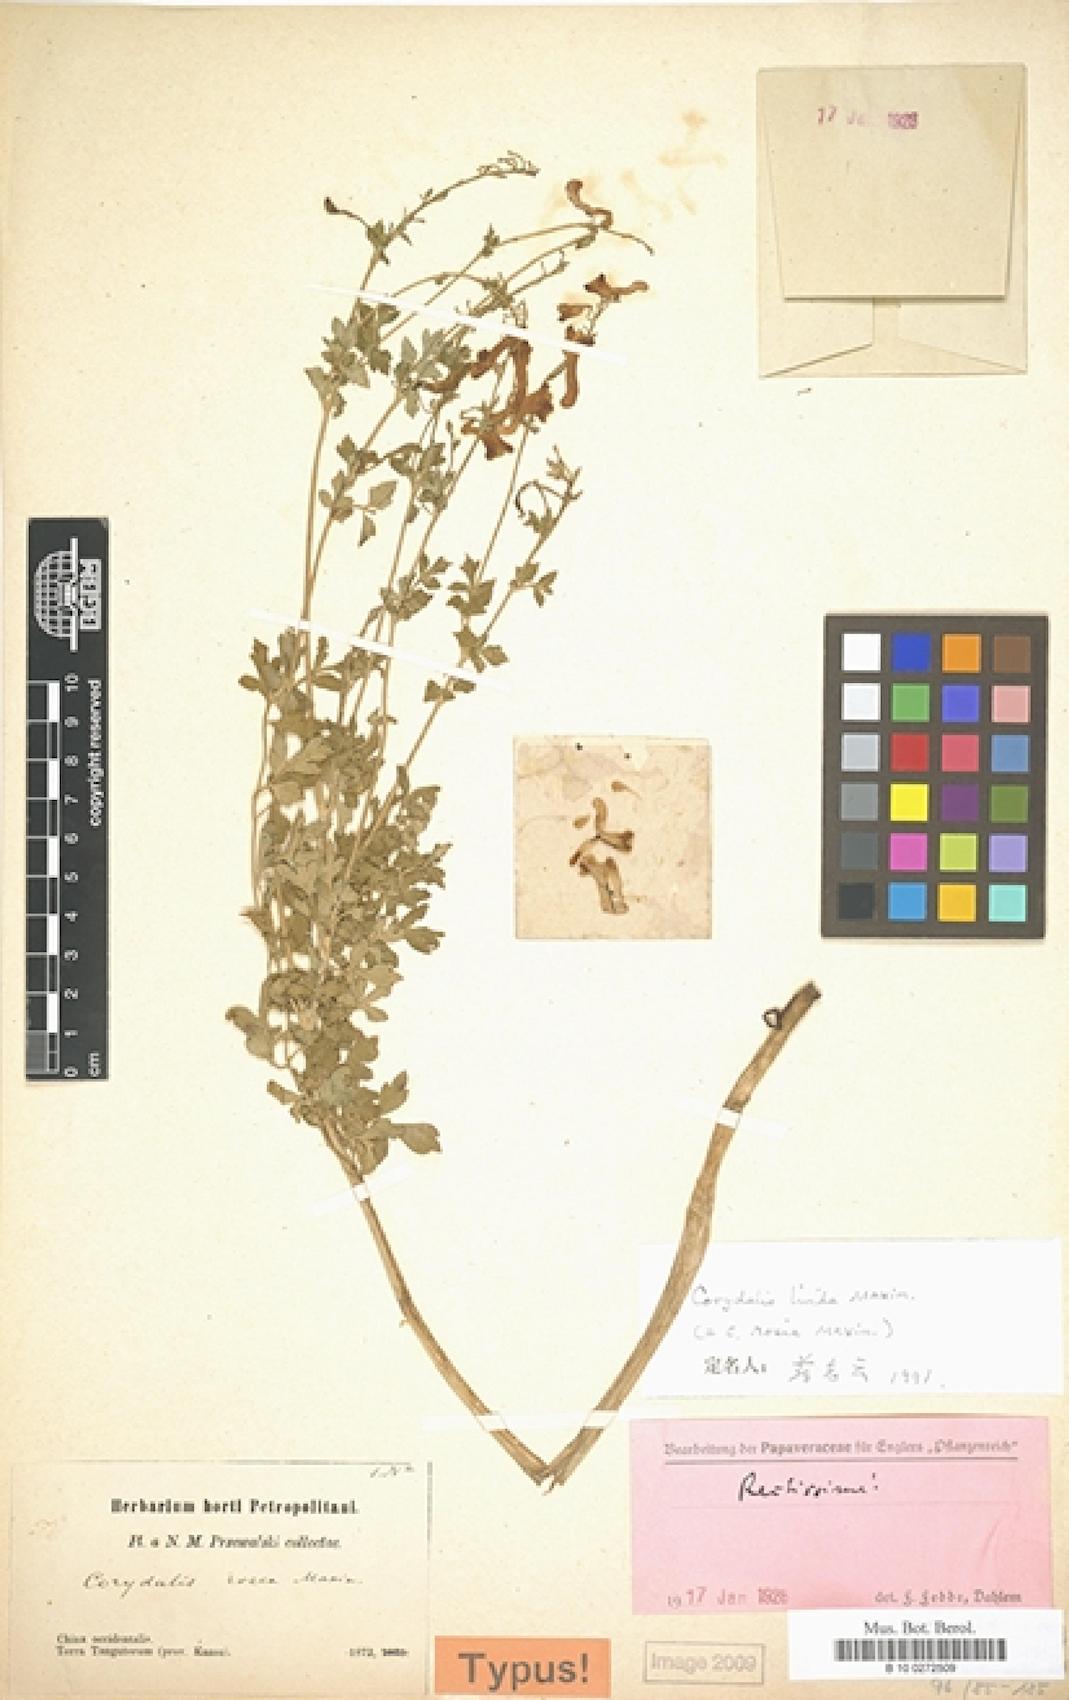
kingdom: Plantae
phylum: Tracheophyta
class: Magnoliopsida
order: Ranunculales
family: Papaveraceae
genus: Corydalis
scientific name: Corydalis livida
